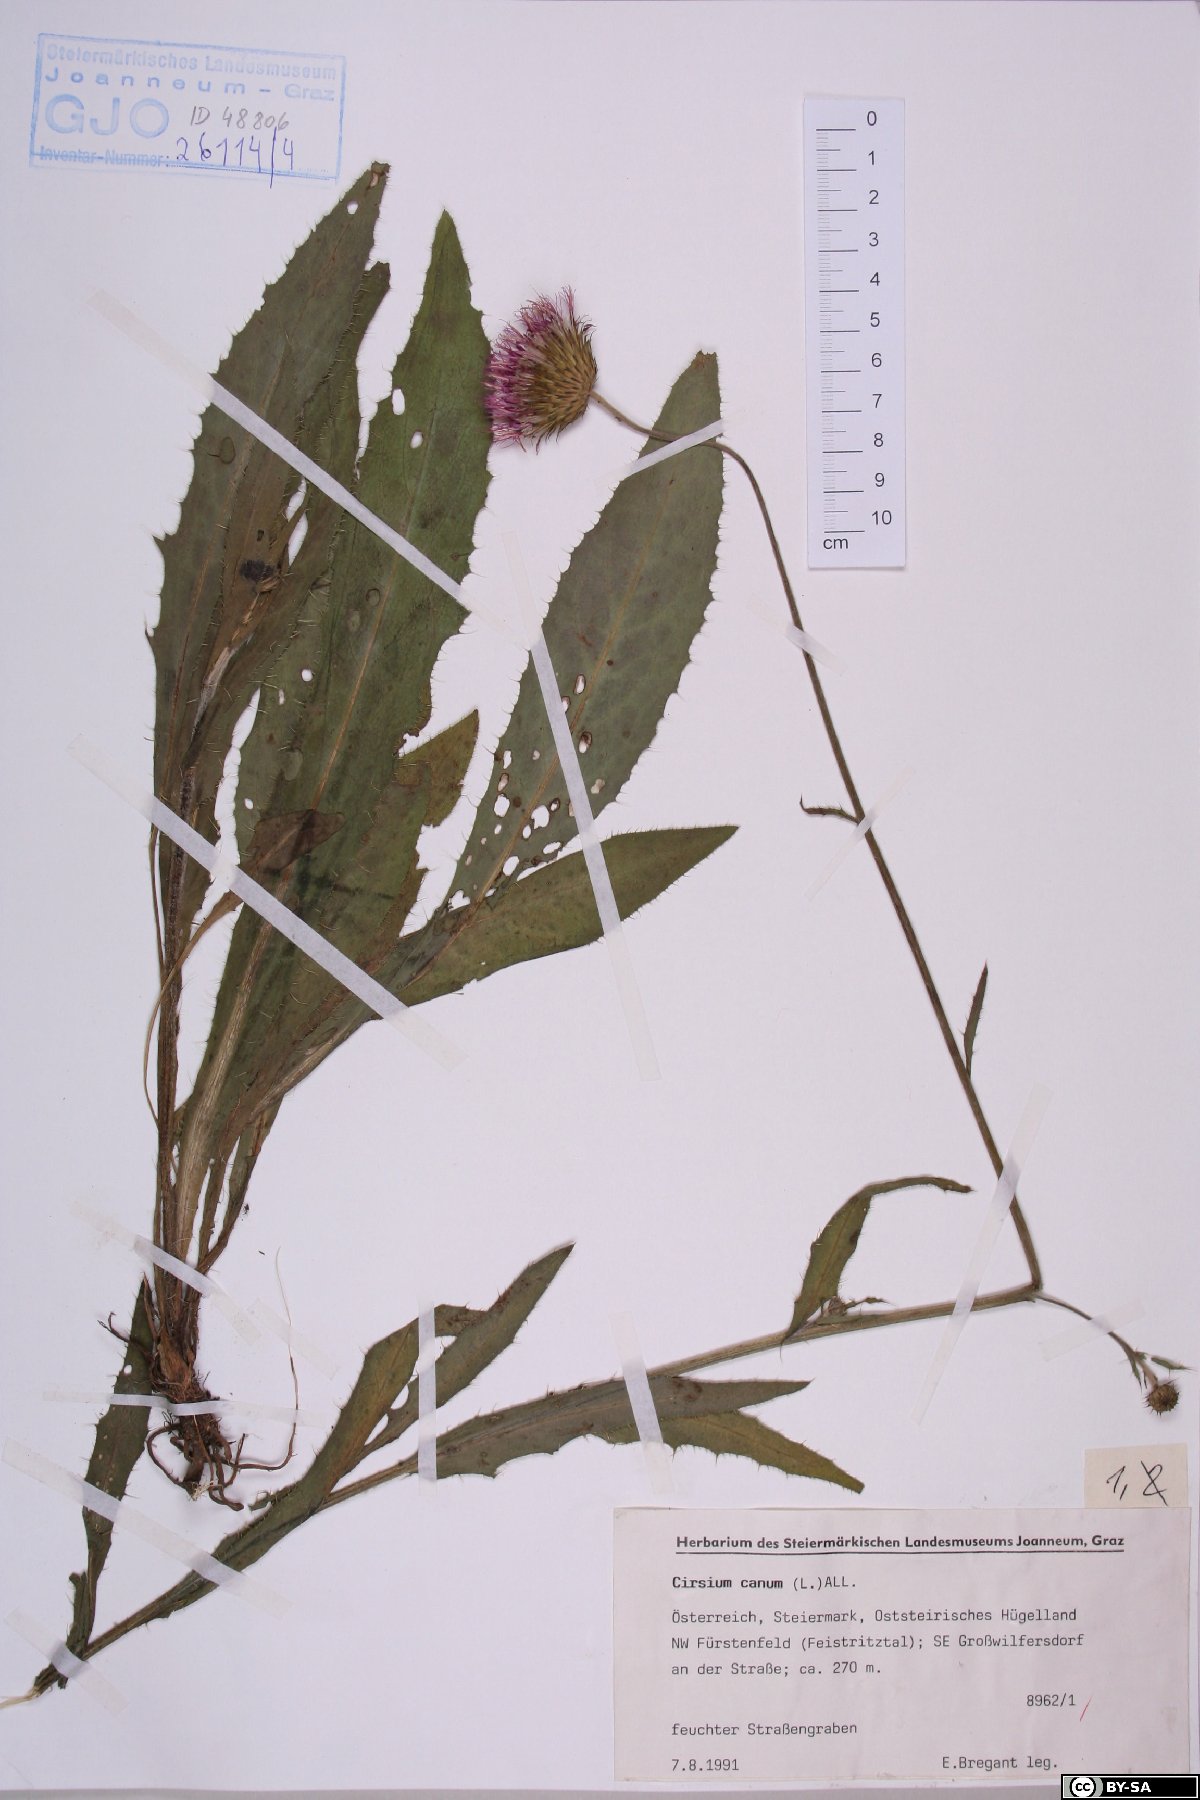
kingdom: Plantae
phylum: Tracheophyta
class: Magnoliopsida
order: Asterales
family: Asteraceae
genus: Cirsium
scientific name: Cirsium canum
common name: Queen anne's thistle
